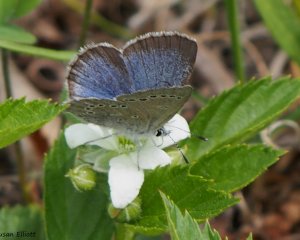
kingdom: Animalia
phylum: Arthropoda
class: Insecta
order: Lepidoptera
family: Lycaenidae
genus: Glaucopsyche
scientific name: Glaucopsyche lygdamus
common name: Silvery Blue
